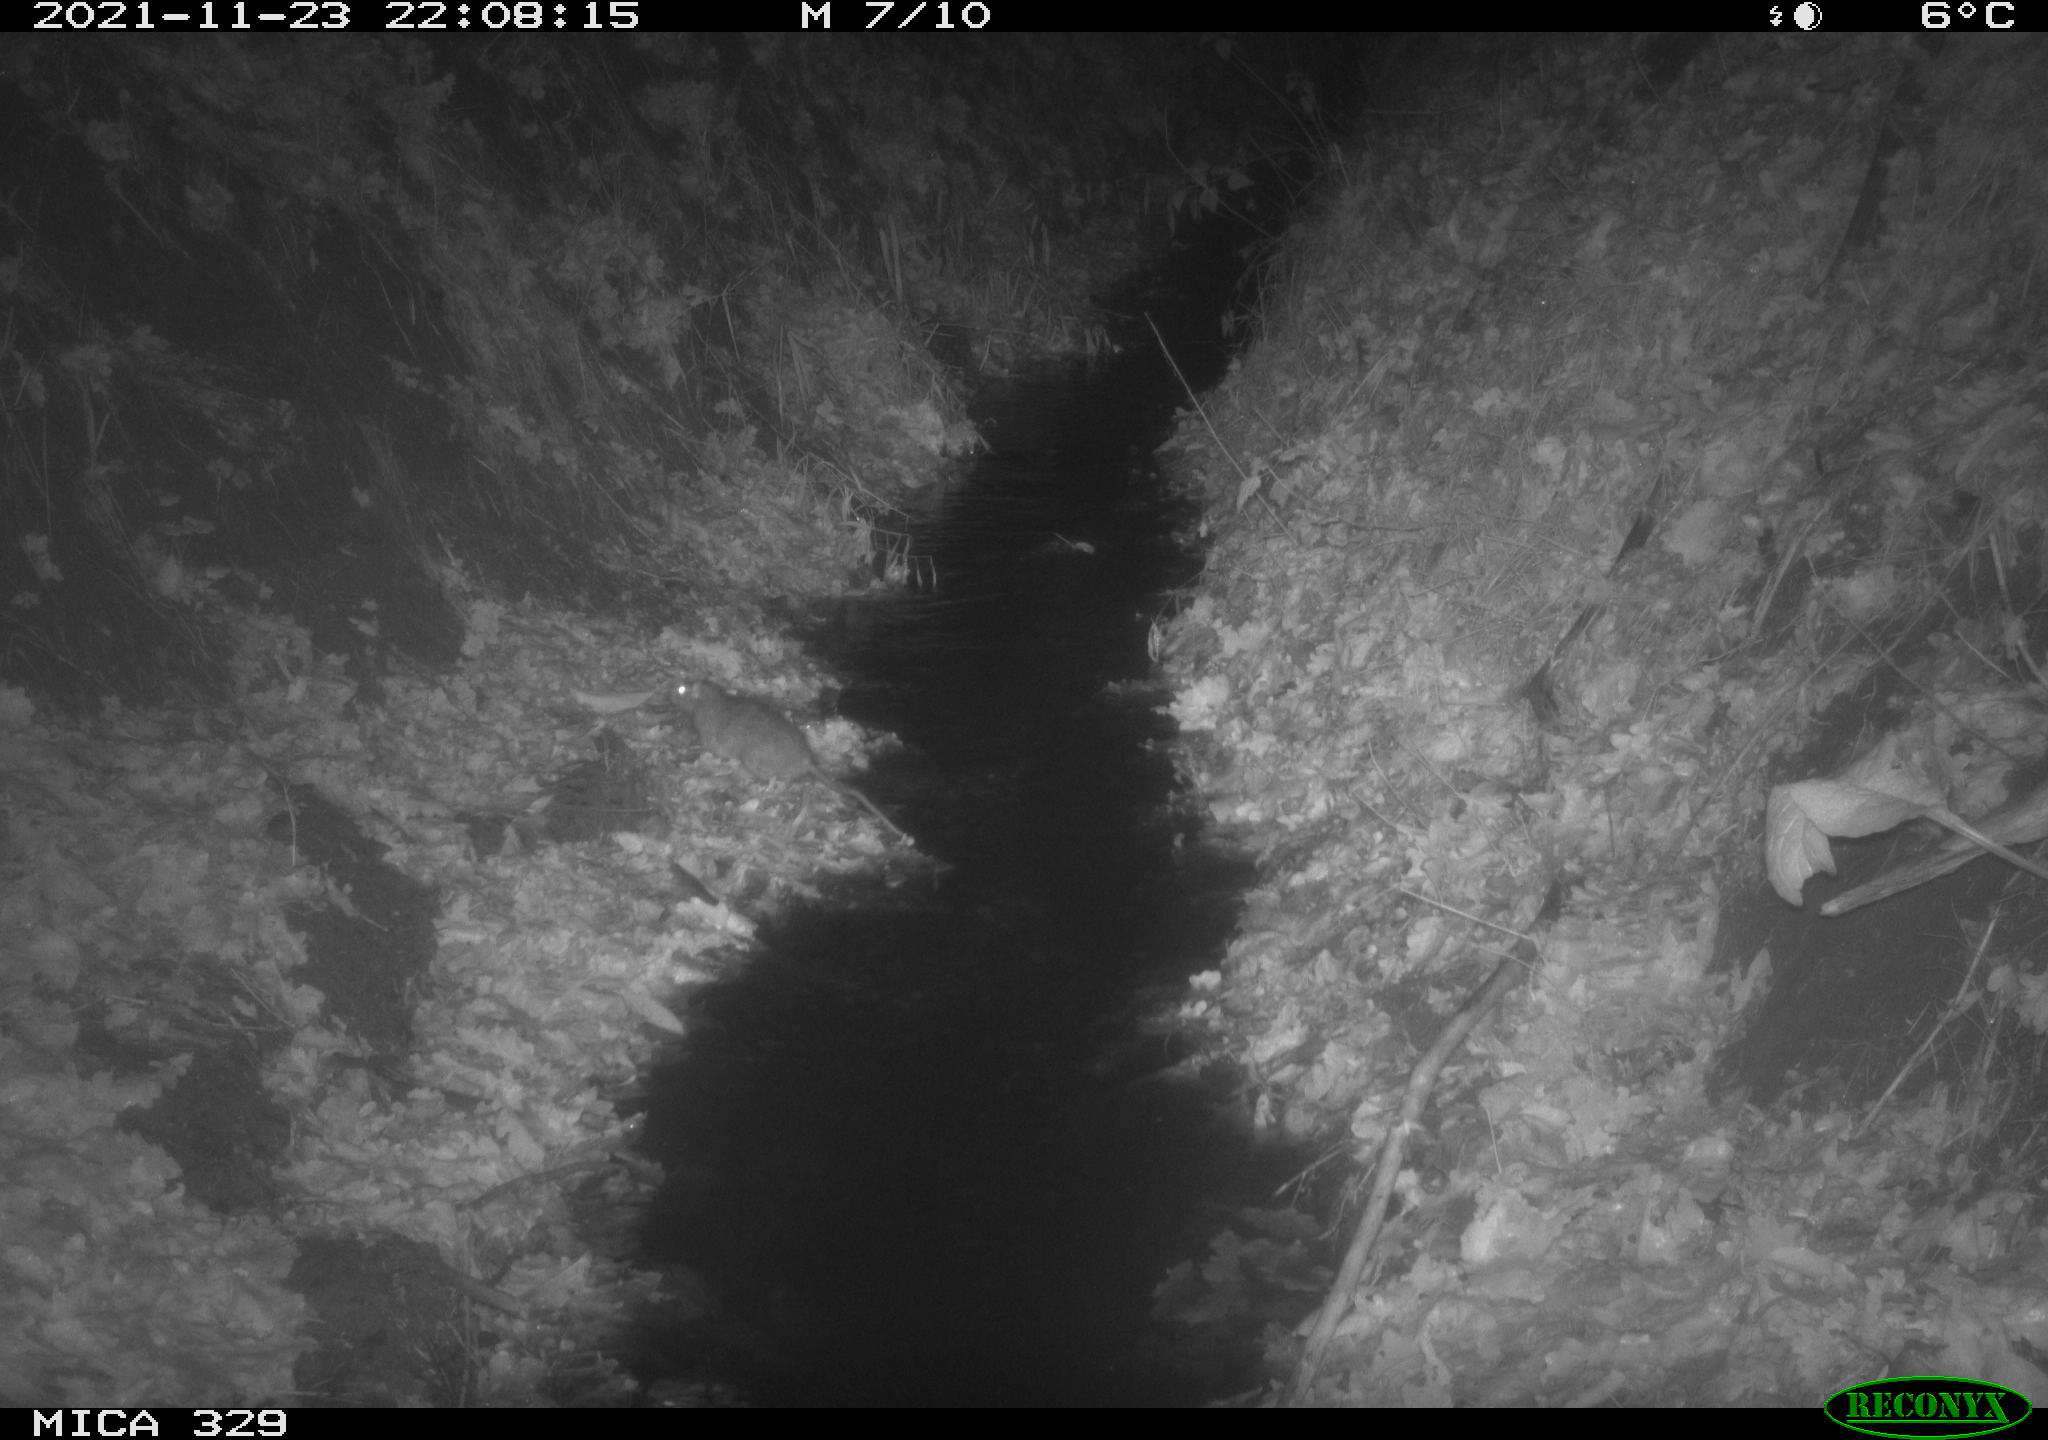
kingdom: Animalia
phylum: Chordata
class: Mammalia
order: Rodentia
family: Muridae
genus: Rattus
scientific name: Rattus norvegicus
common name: Brown rat
